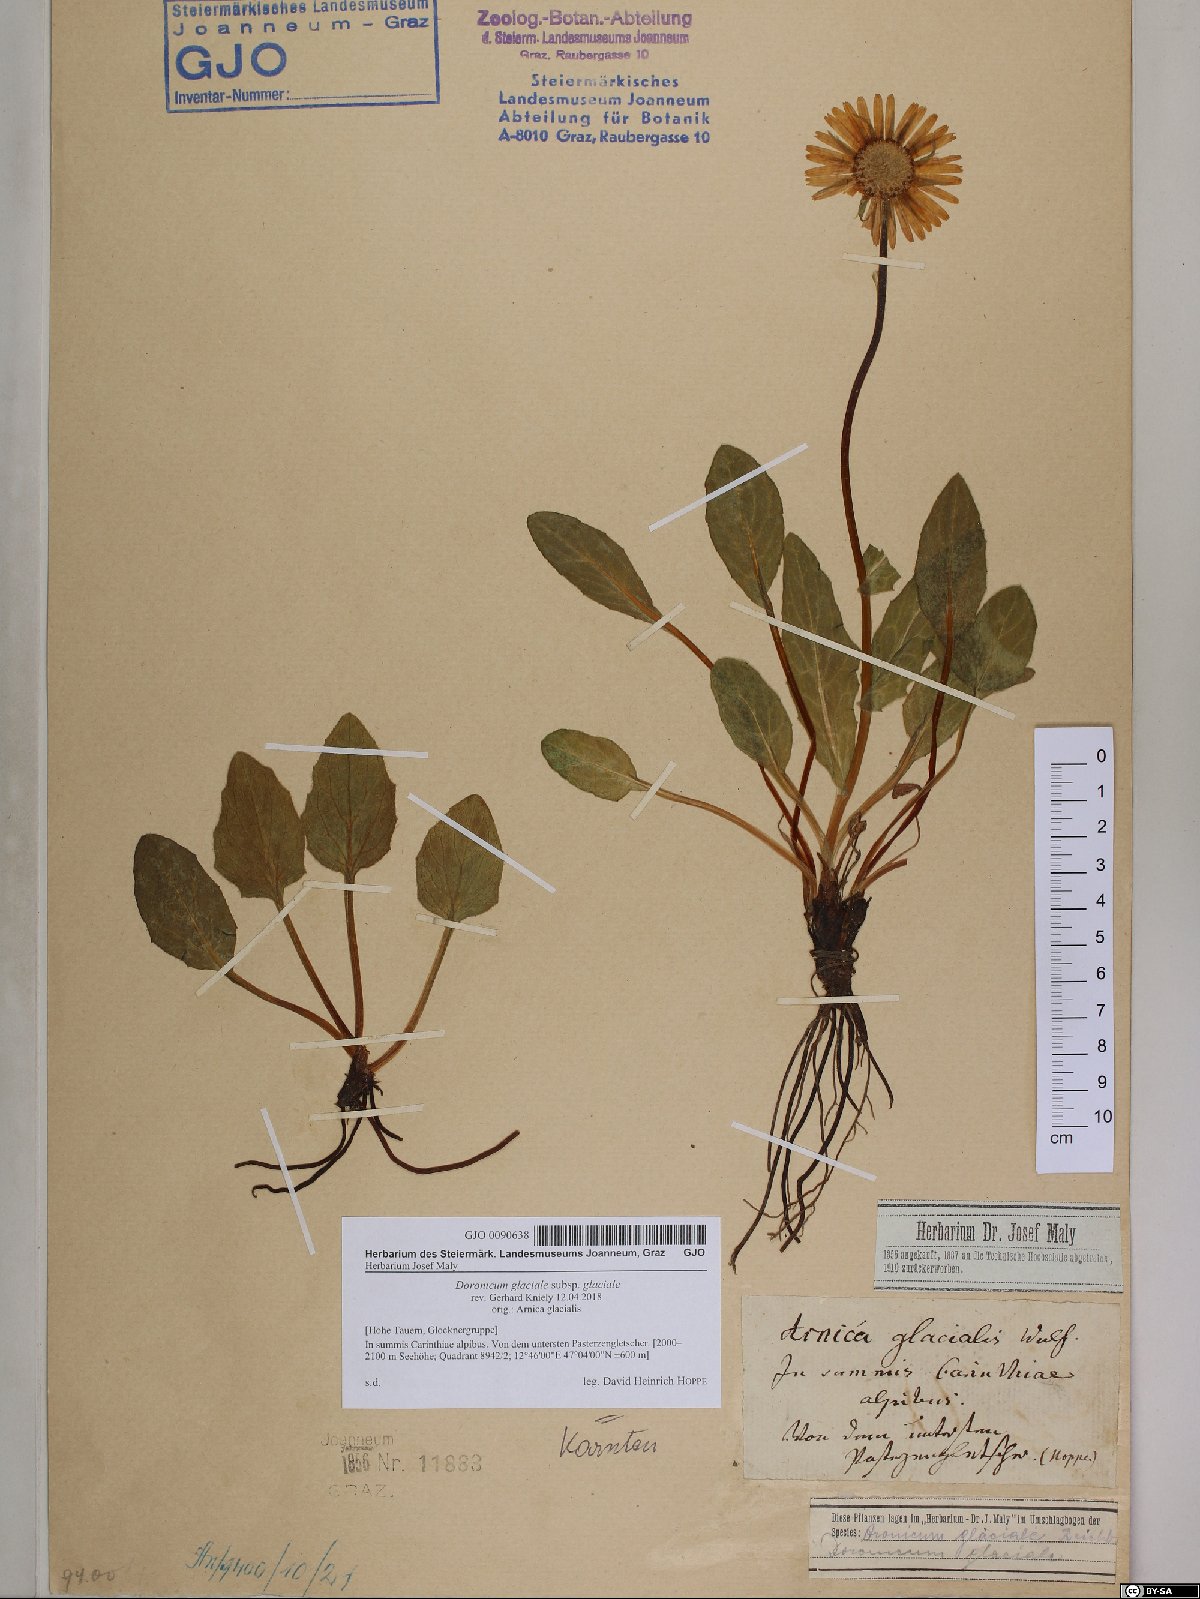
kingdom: Plantae
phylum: Tracheophyta
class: Magnoliopsida
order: Asterales
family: Asteraceae
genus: Doronicum
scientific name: Doronicum glaciale
